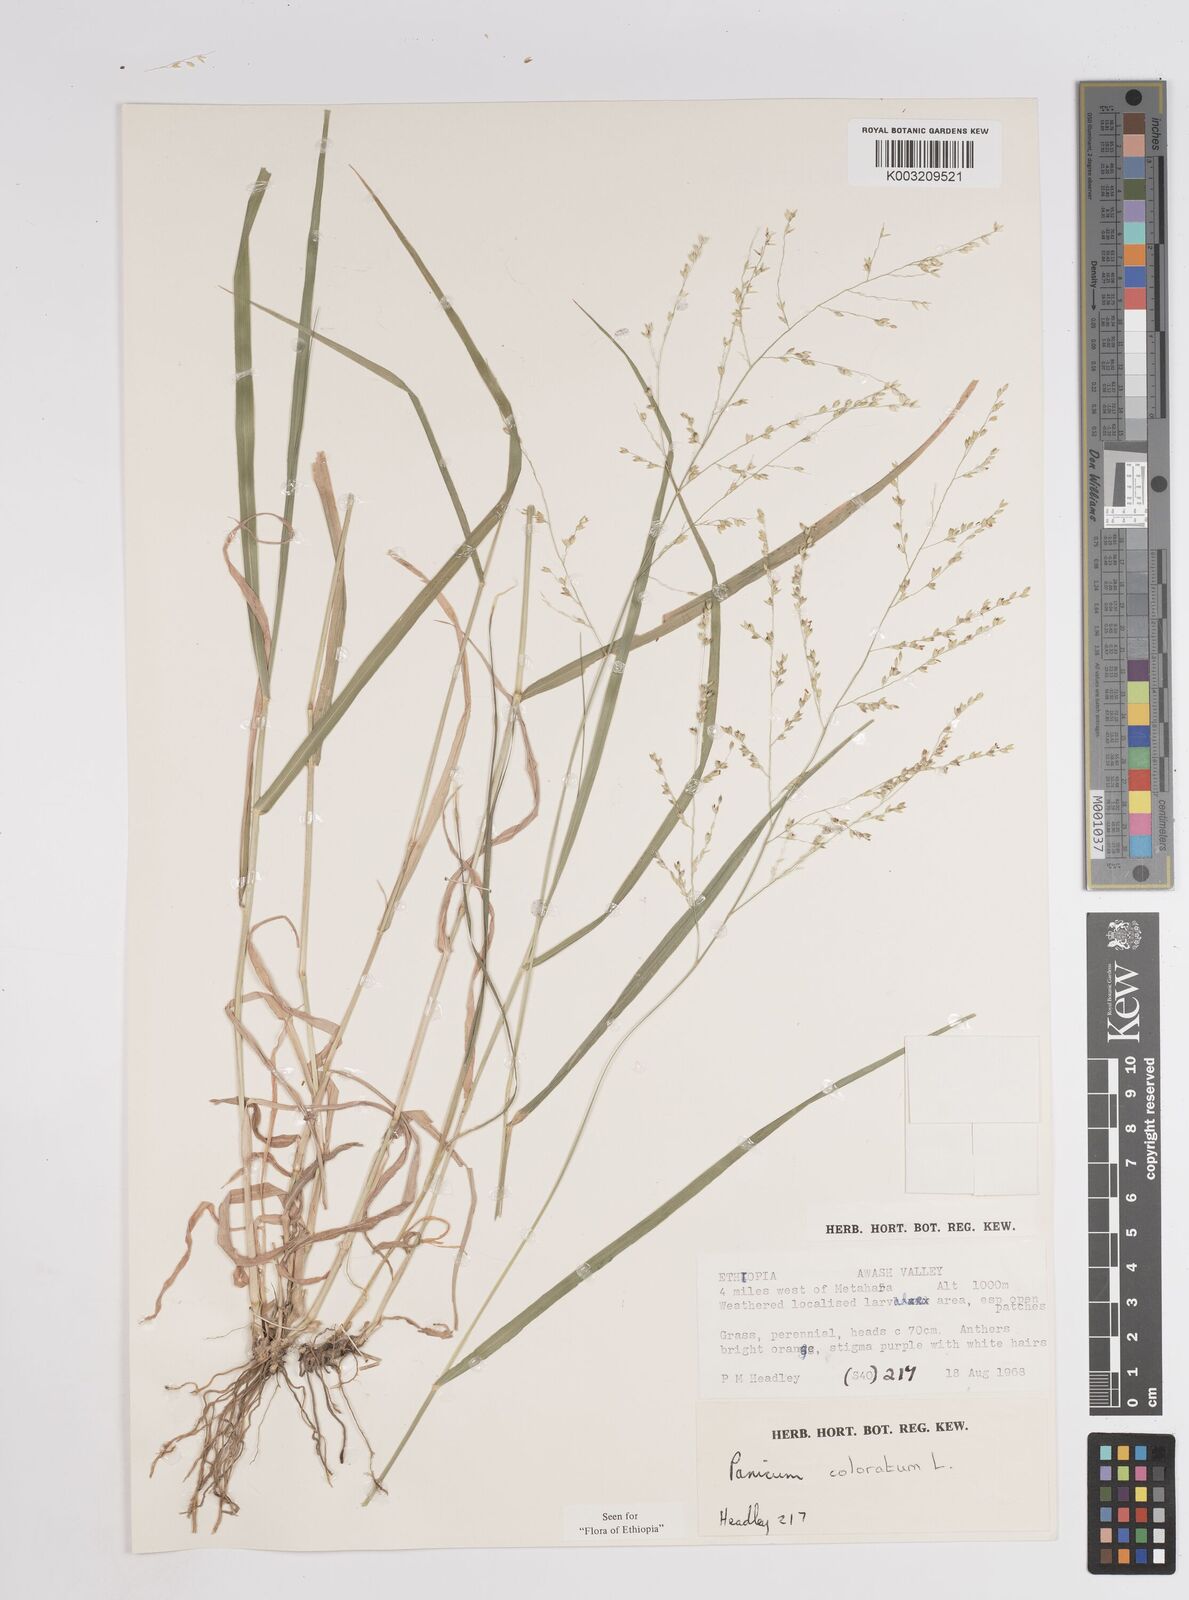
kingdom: Plantae
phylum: Tracheophyta
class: Liliopsida
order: Poales
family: Poaceae
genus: Panicum
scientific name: Panicum coloratum
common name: Kleingrass
